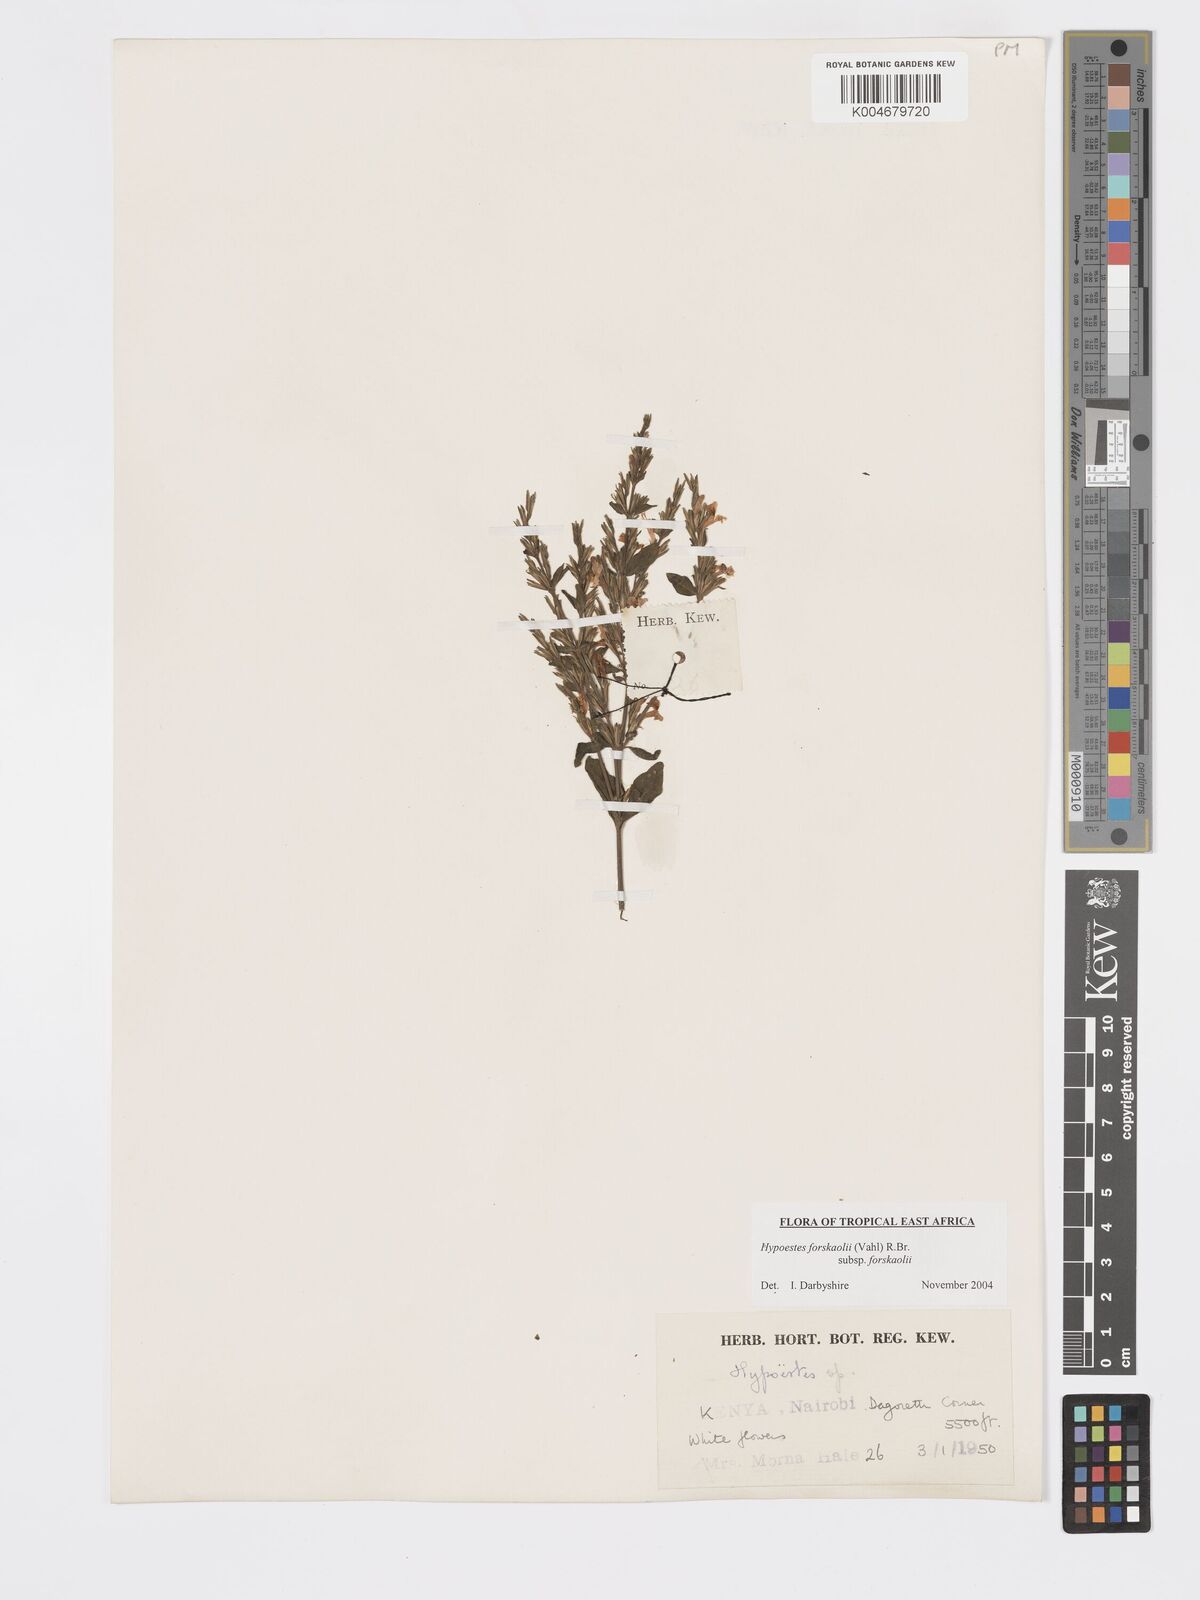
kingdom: Plantae
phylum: Tracheophyta
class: Magnoliopsida
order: Lamiales
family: Acanthaceae
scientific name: Acanthaceae
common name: Acanthaceae
